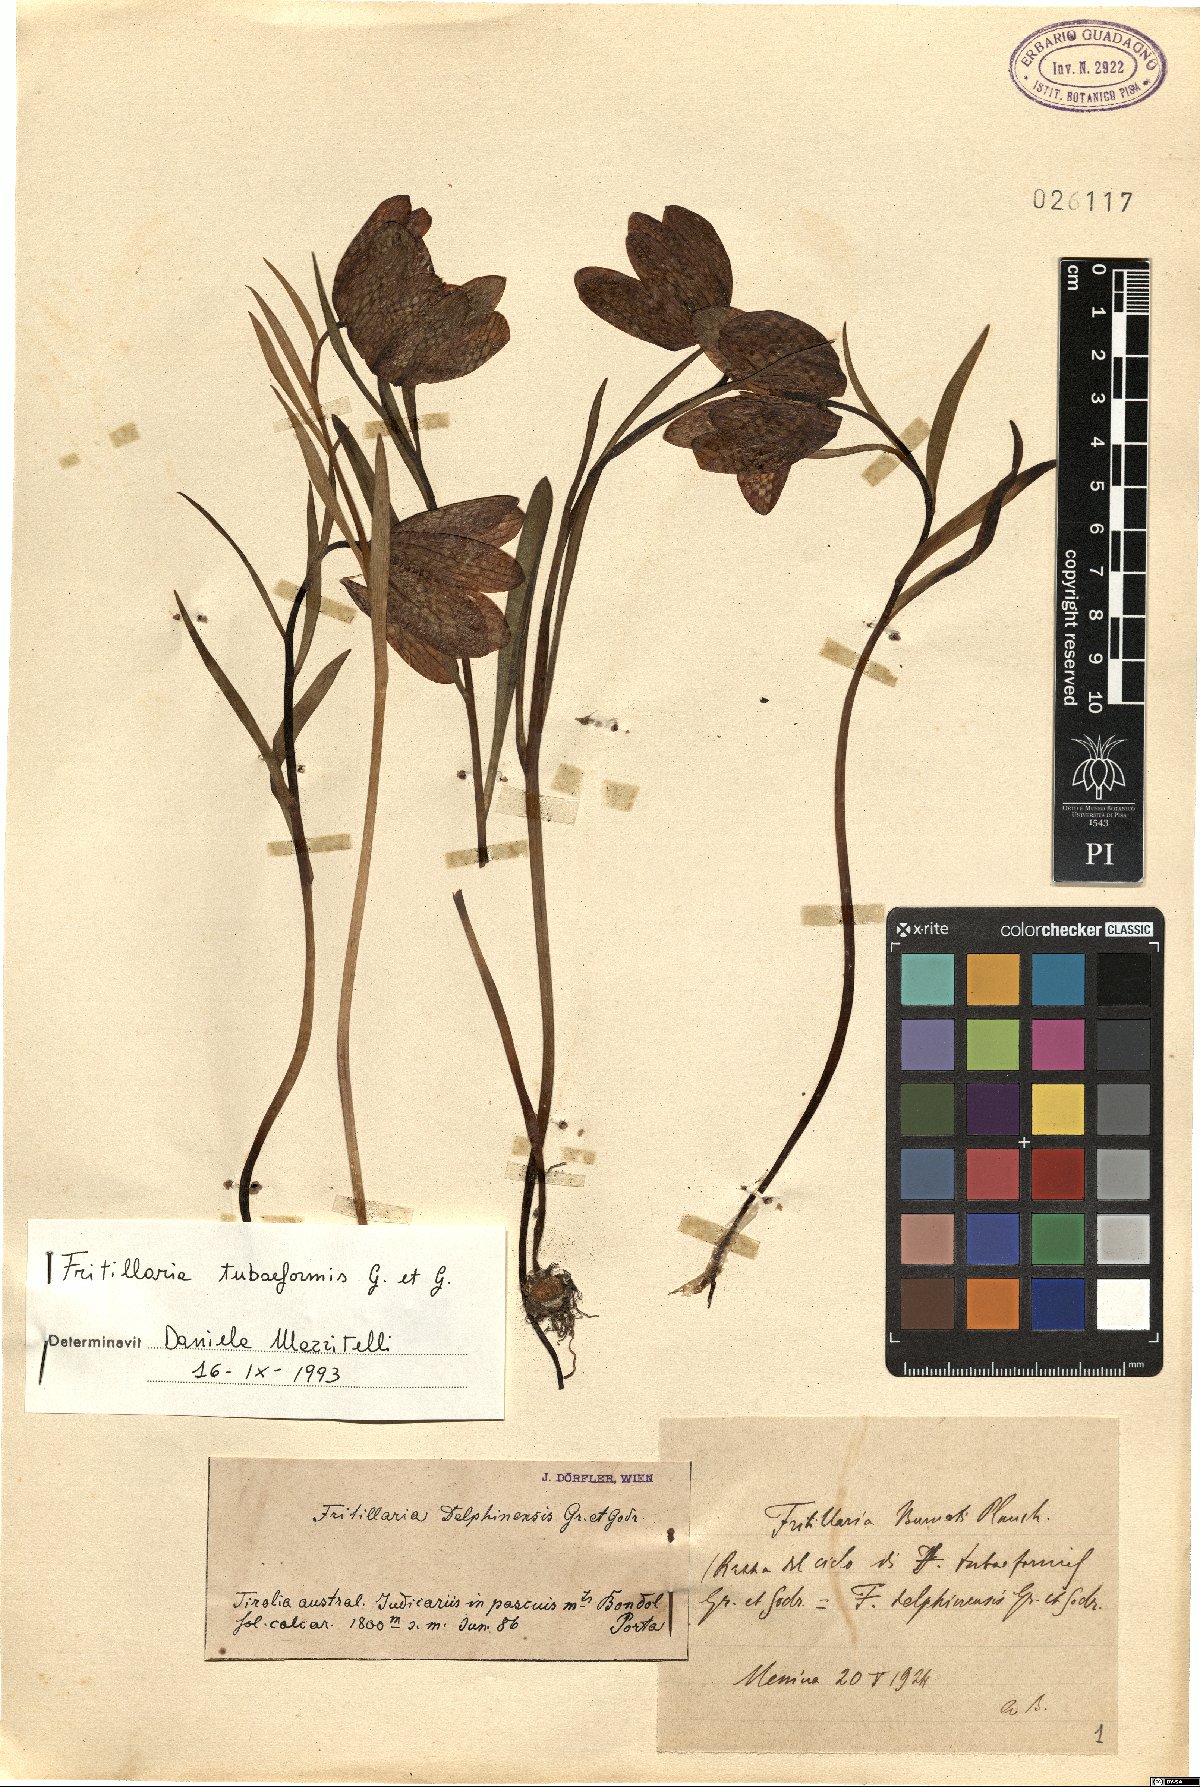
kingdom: Plantae
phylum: Tracheophyta
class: Liliopsida
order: Liliales
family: Liliaceae
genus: Fritillaria
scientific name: Fritillaria tubiformis
